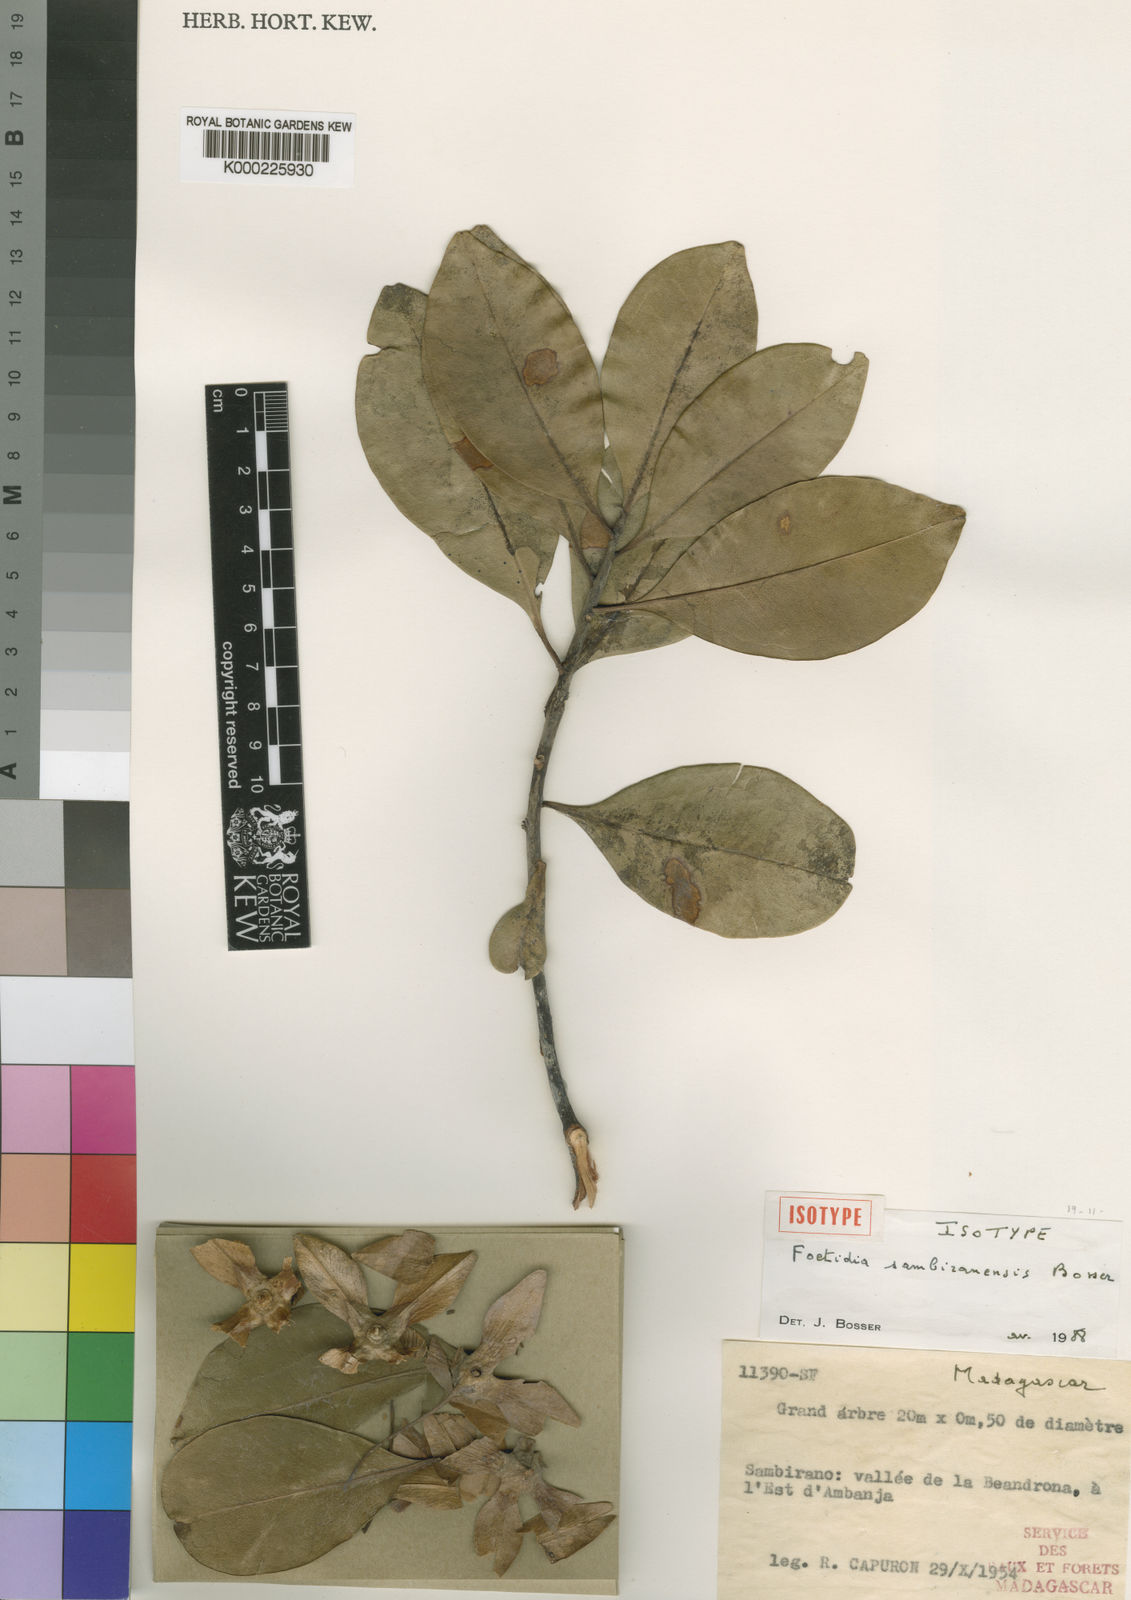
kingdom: Plantae
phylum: Tracheophyta
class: Magnoliopsida
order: Ericales
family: Lecythidaceae
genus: Foetidia
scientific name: Foetidia sambiranensis
